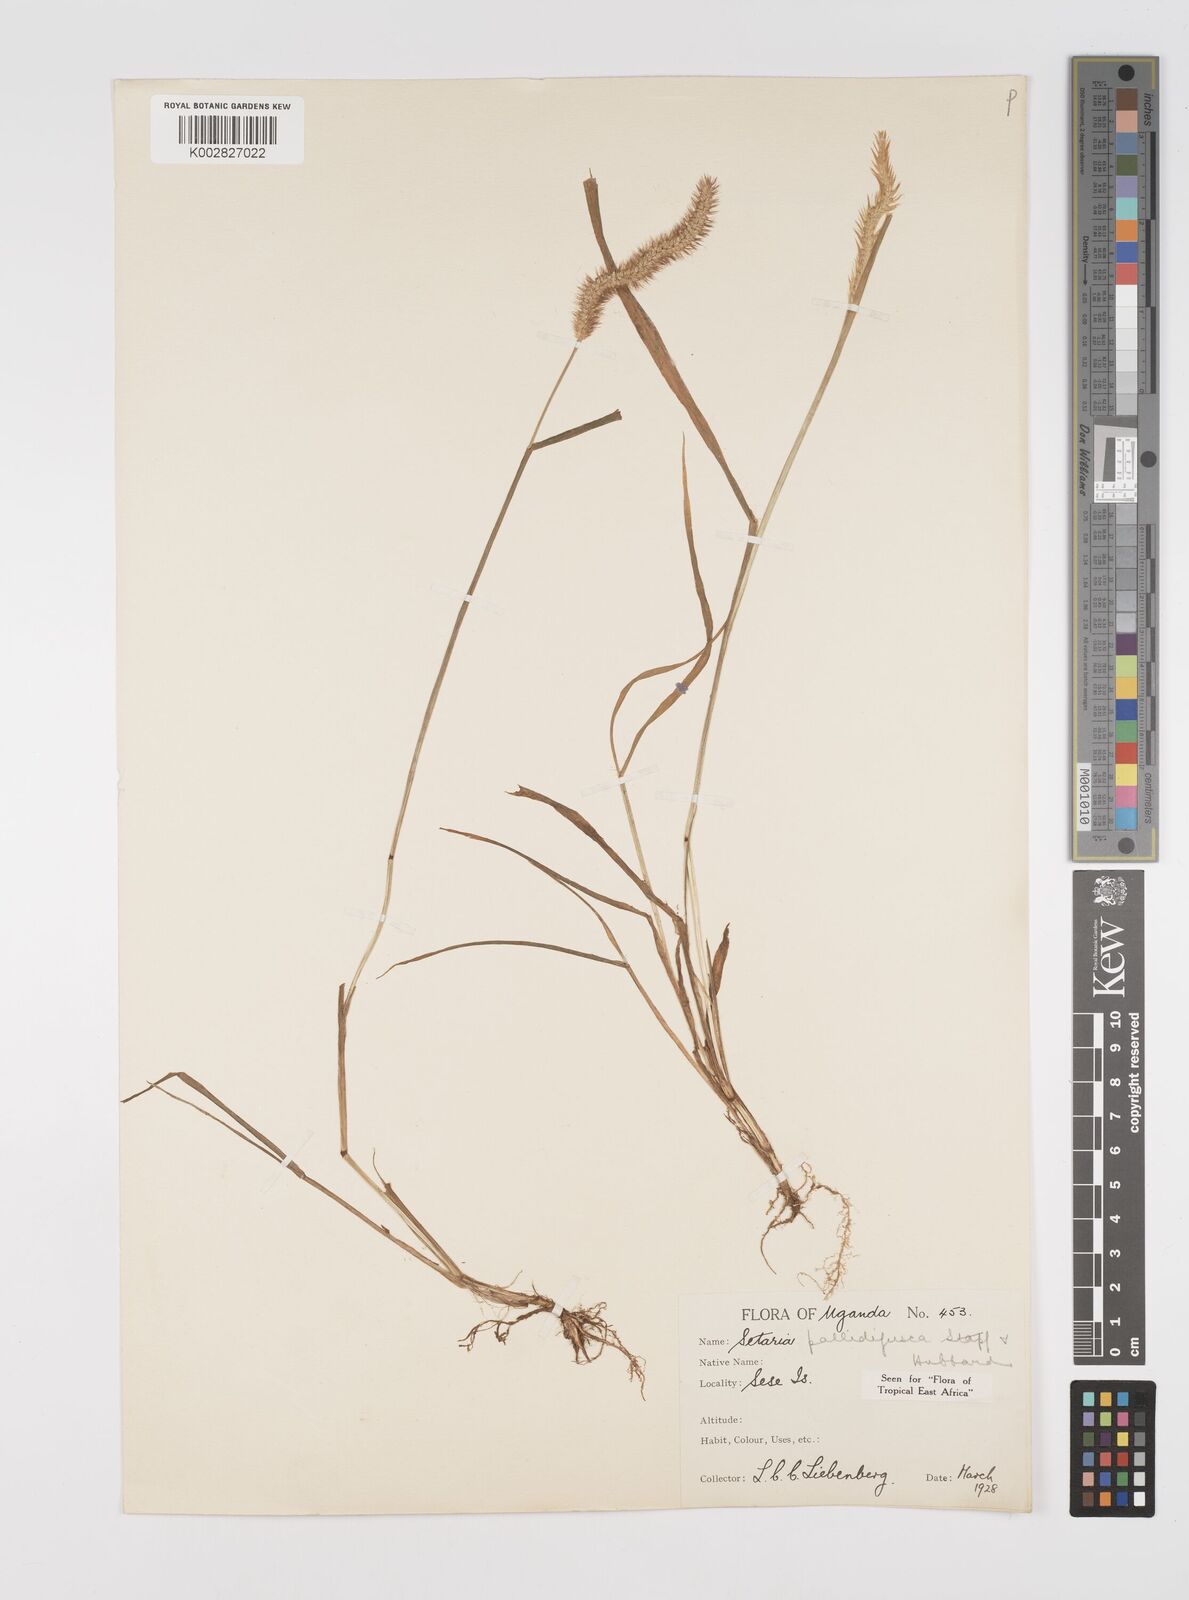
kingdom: Plantae
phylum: Tracheophyta
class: Liliopsida
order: Poales
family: Poaceae
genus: Setaria
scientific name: Setaria pumila
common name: Yellow bristle-grass
